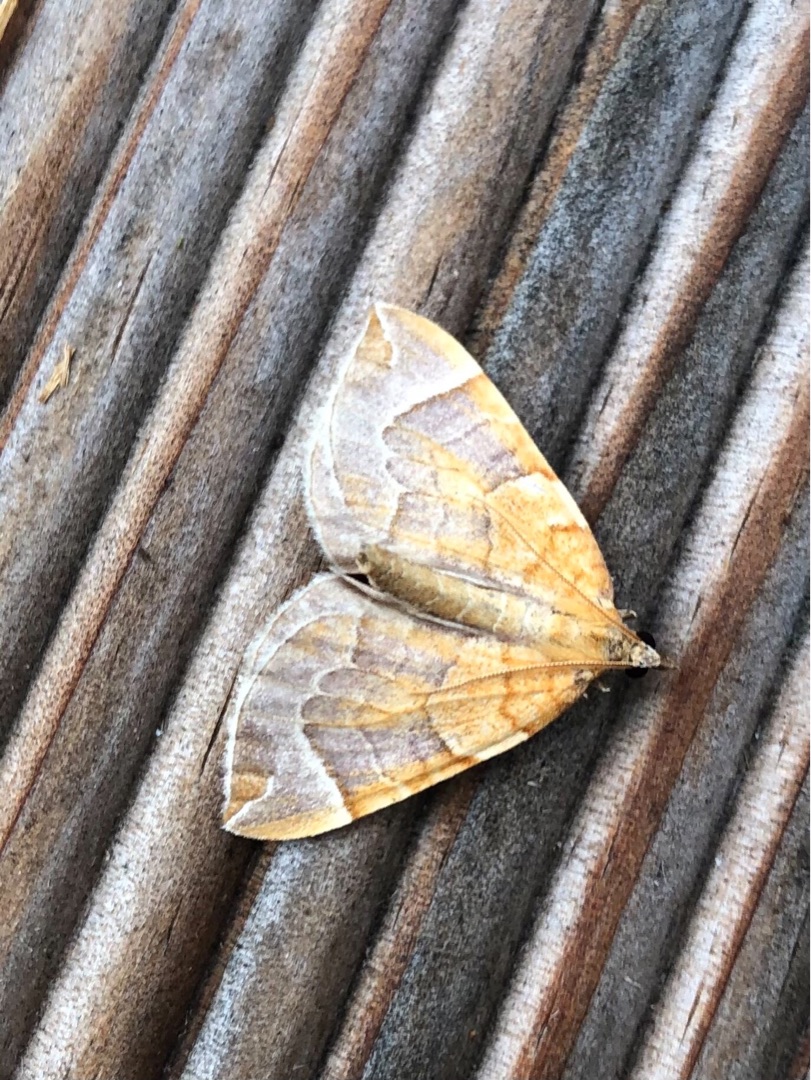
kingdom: Animalia
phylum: Arthropoda
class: Insecta
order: Lepidoptera
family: Geometridae
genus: Eulithis
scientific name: Eulithis testata
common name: Pile-havemåler
